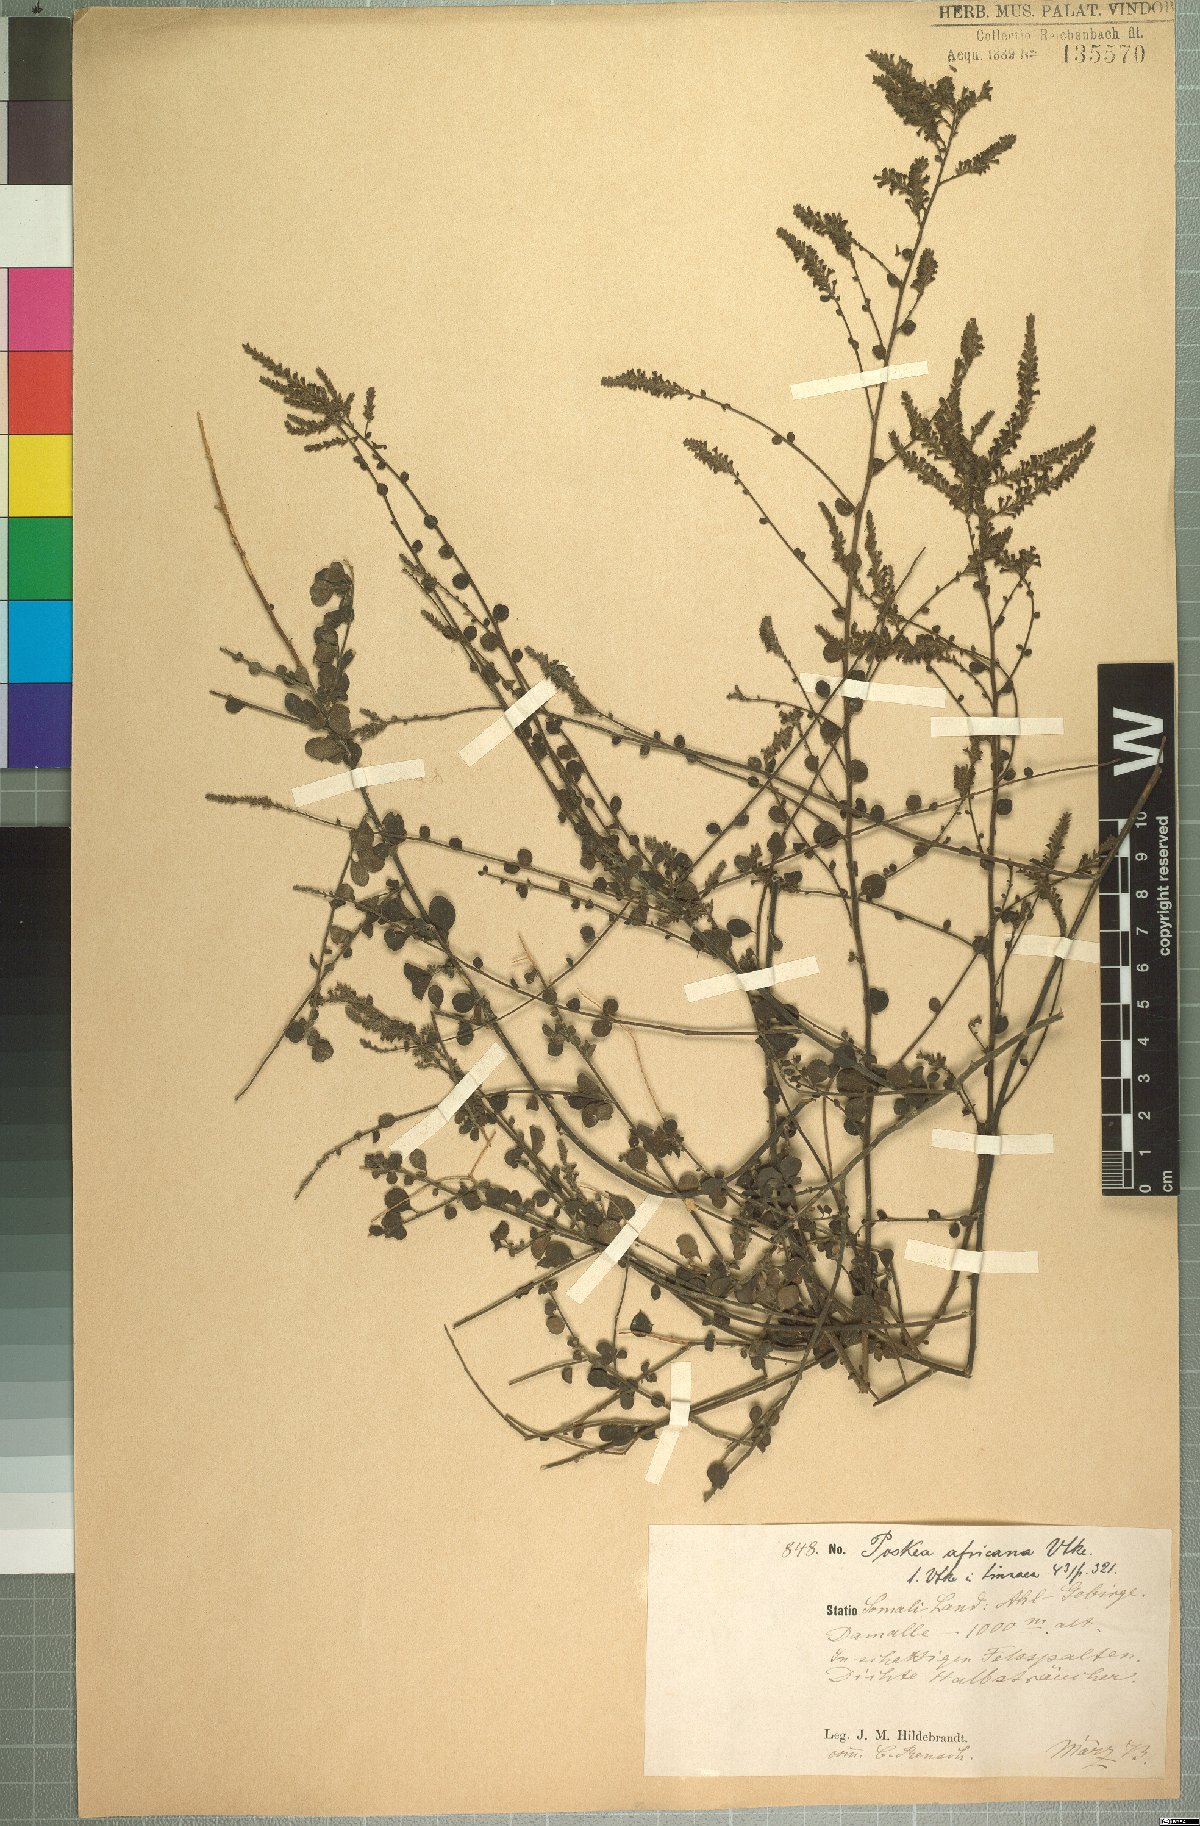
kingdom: Plantae
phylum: Tracheophyta
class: Magnoliopsida
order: Lamiales
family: Plantaginaceae
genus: Poskea
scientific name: Poskea africana
